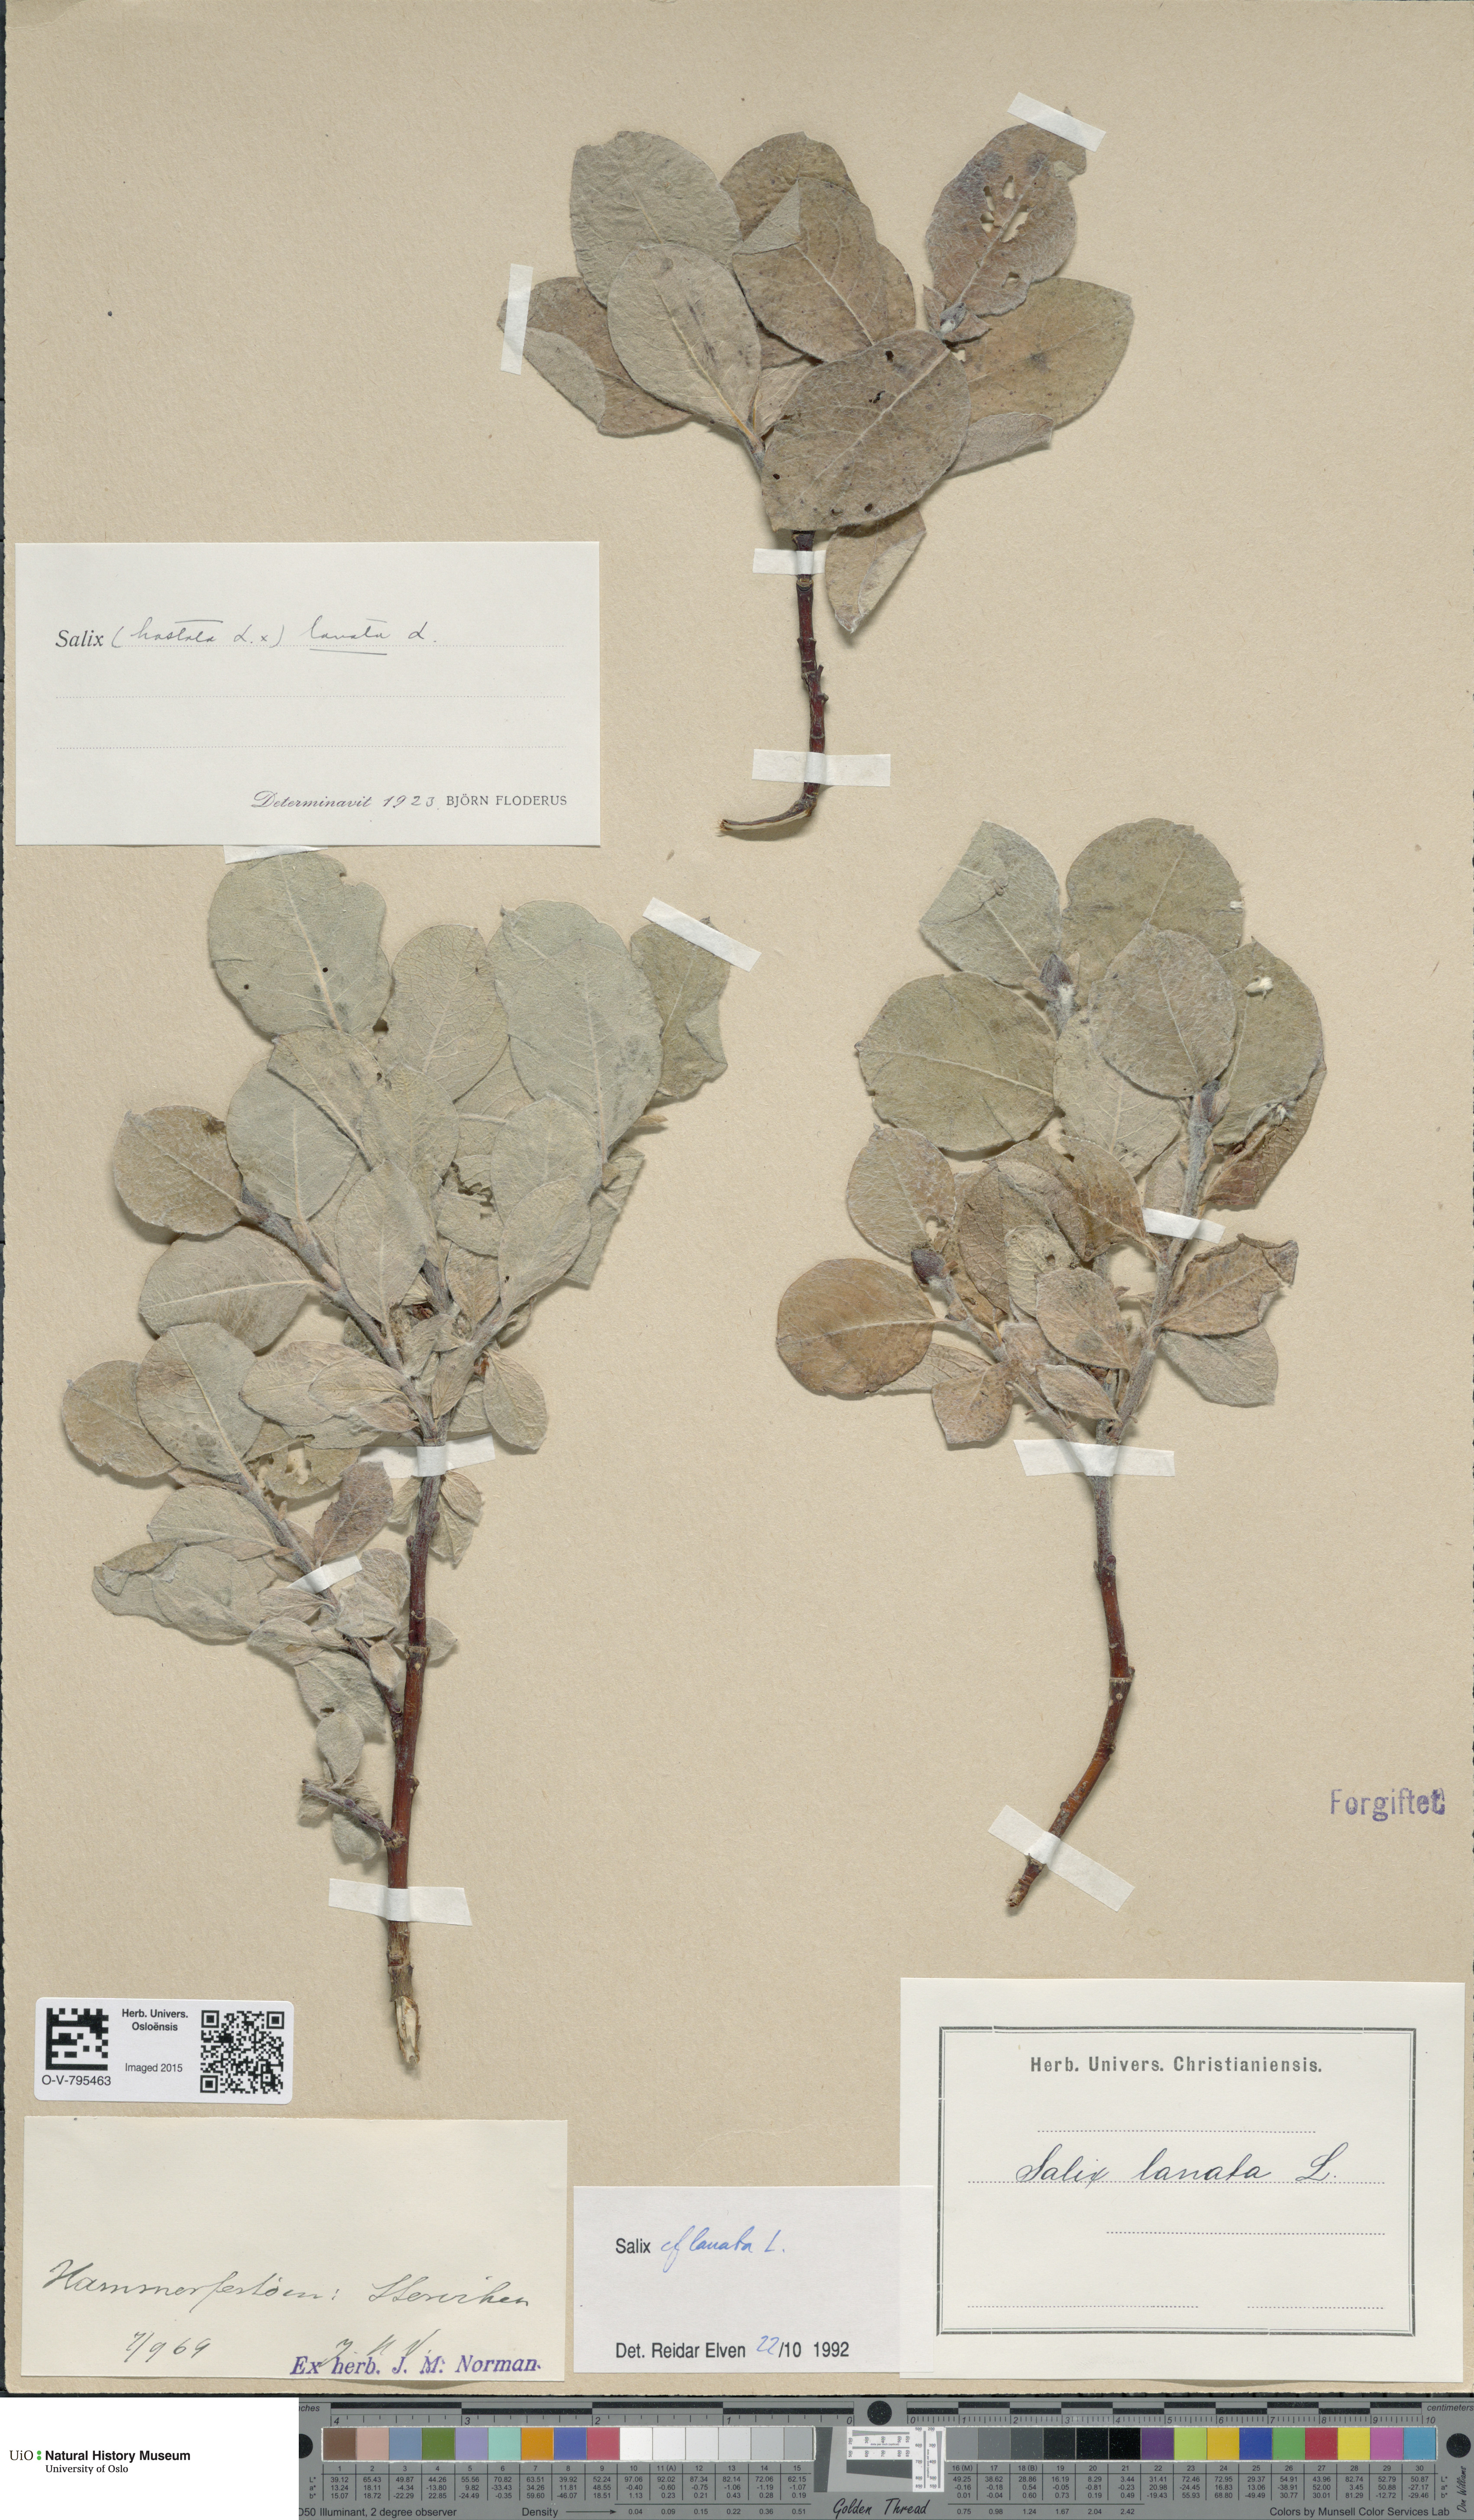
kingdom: Plantae
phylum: Tracheophyta
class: Magnoliopsida
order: Malpighiales
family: Salicaceae
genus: Salix
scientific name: Salix lanata
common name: Woolly willow
